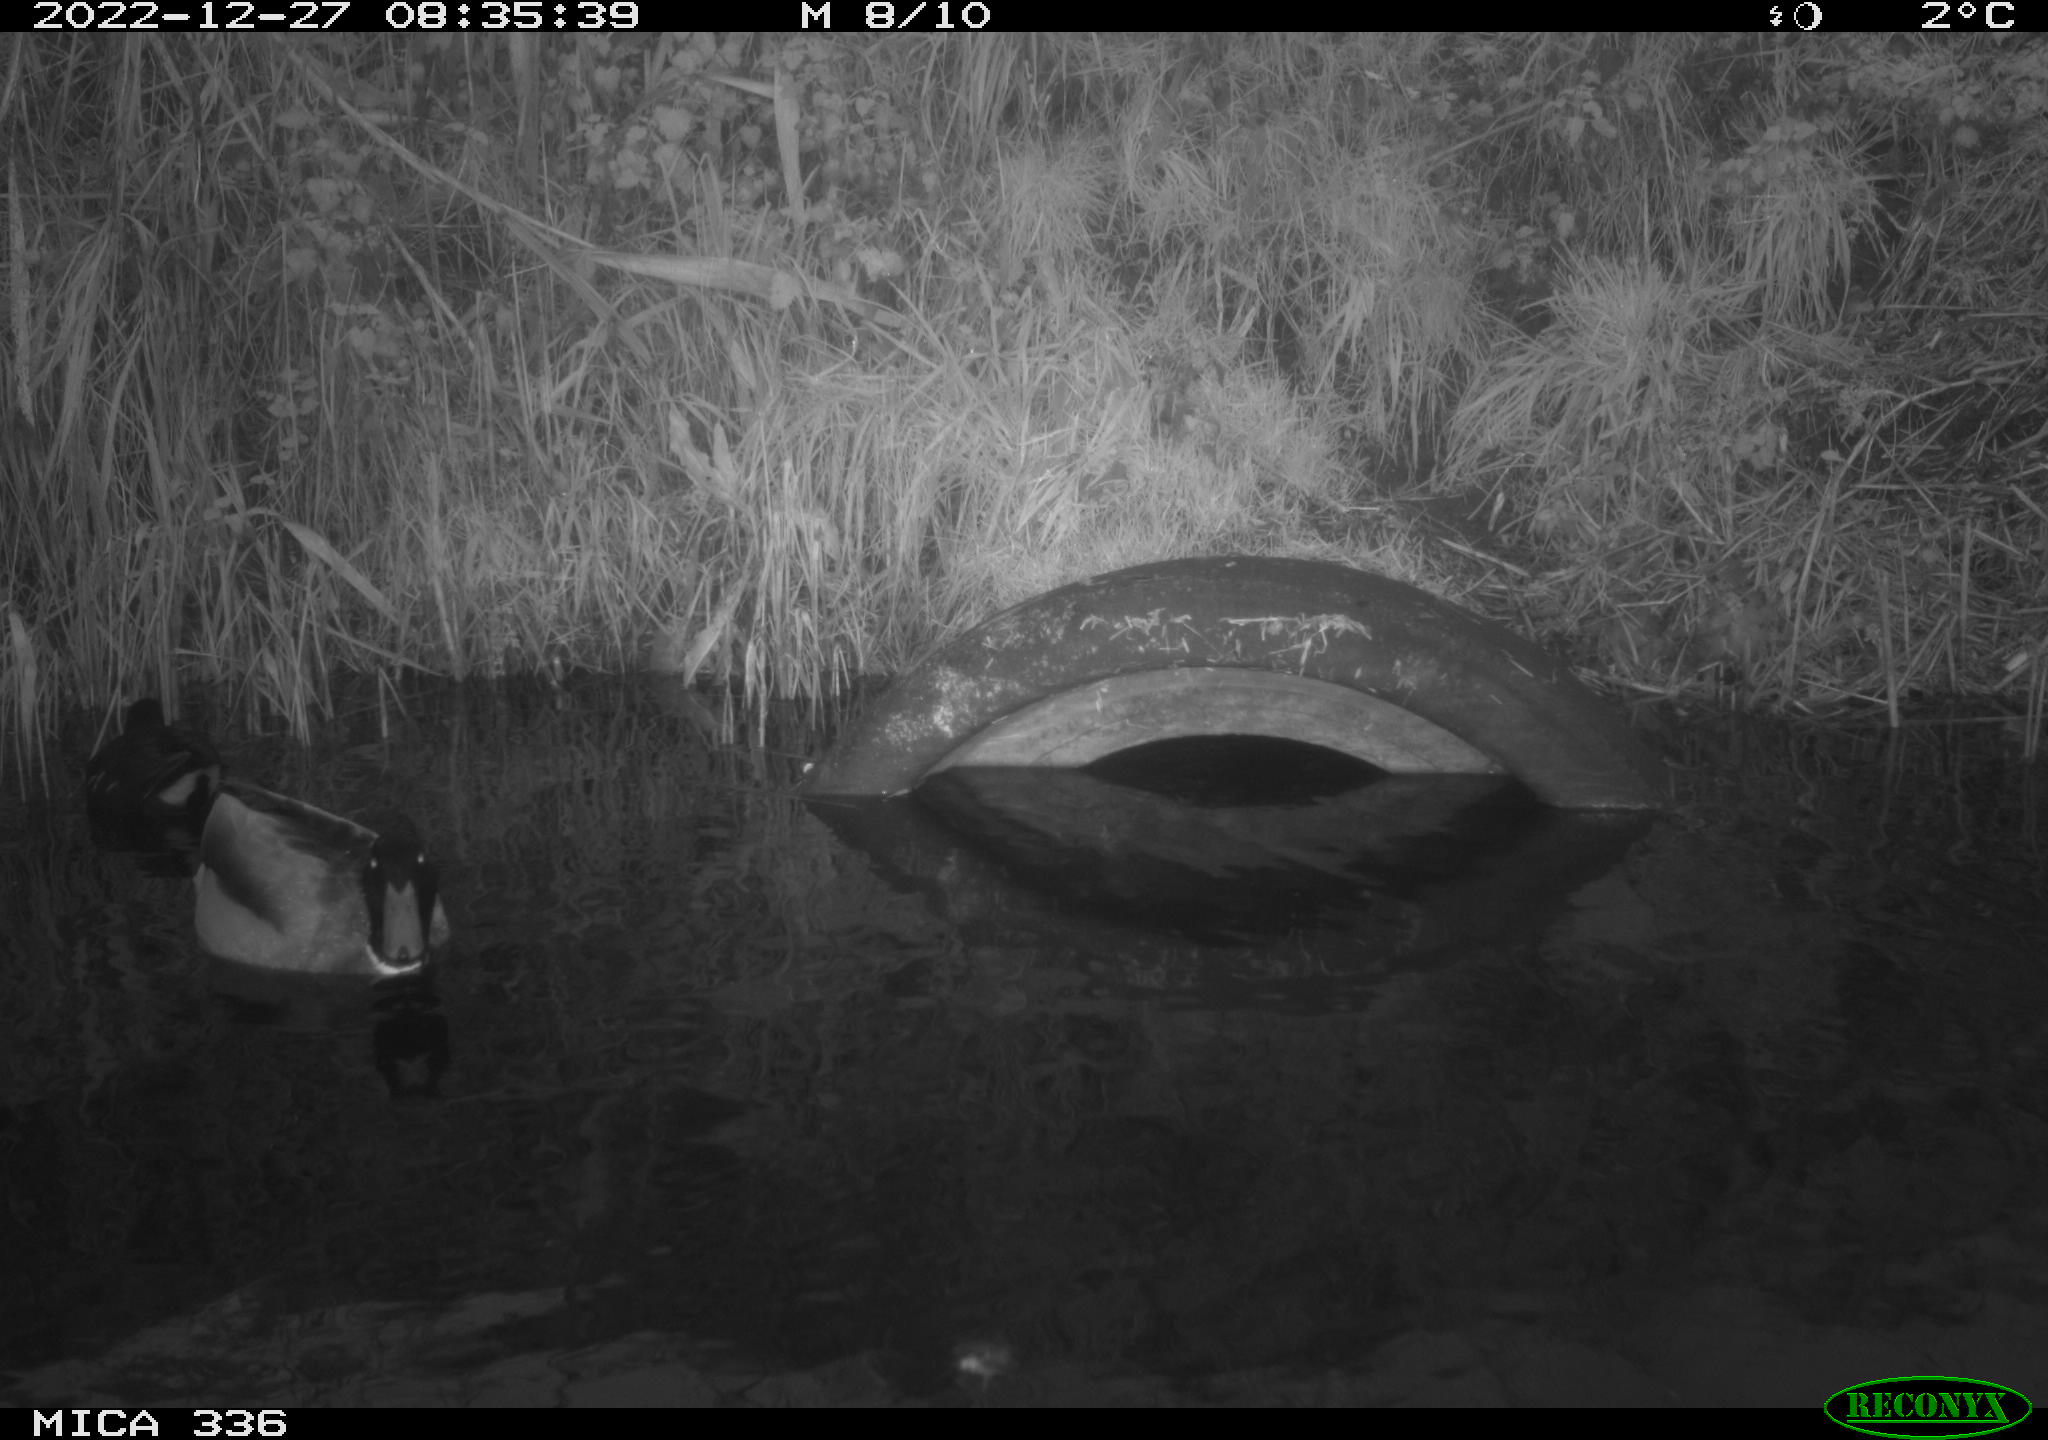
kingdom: Animalia
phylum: Chordata
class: Aves
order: Anseriformes
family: Anatidae
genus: Anas
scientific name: Anas
